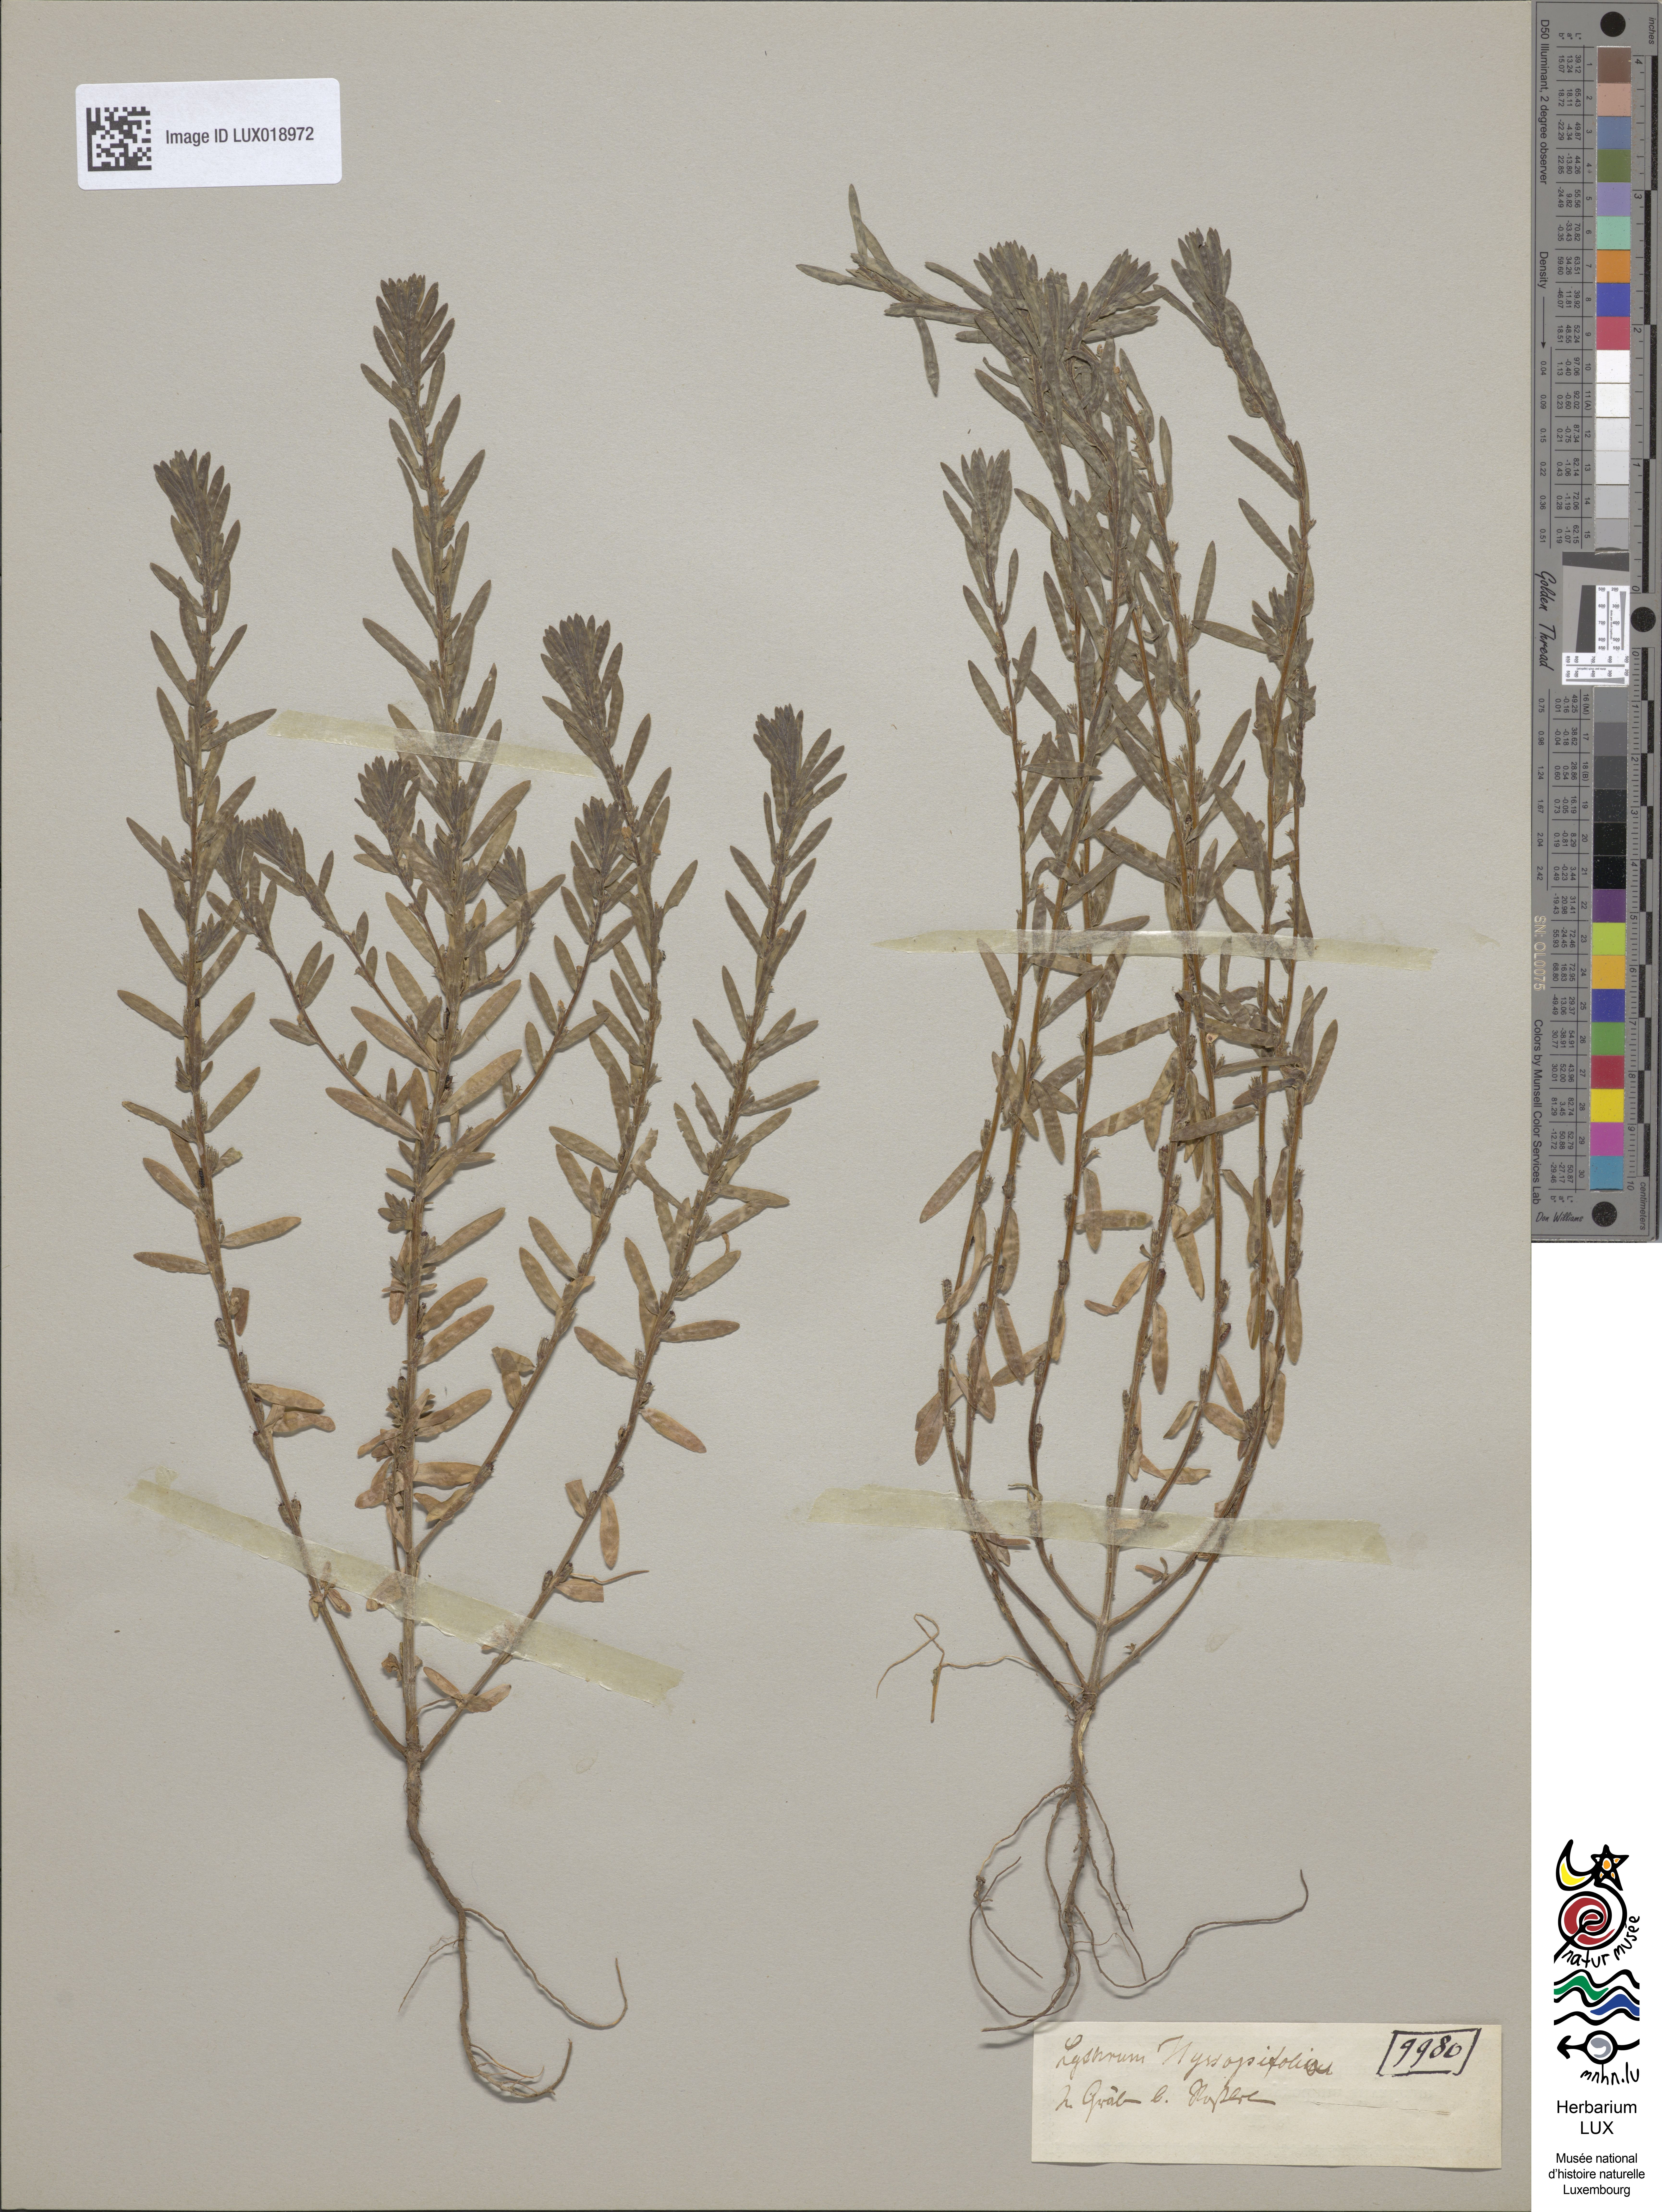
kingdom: Plantae
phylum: Tracheophyta
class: Magnoliopsida
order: Myrtales
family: Lythraceae
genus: Lythrum
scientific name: Lythrum hyssopifolia
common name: Grass-poly
